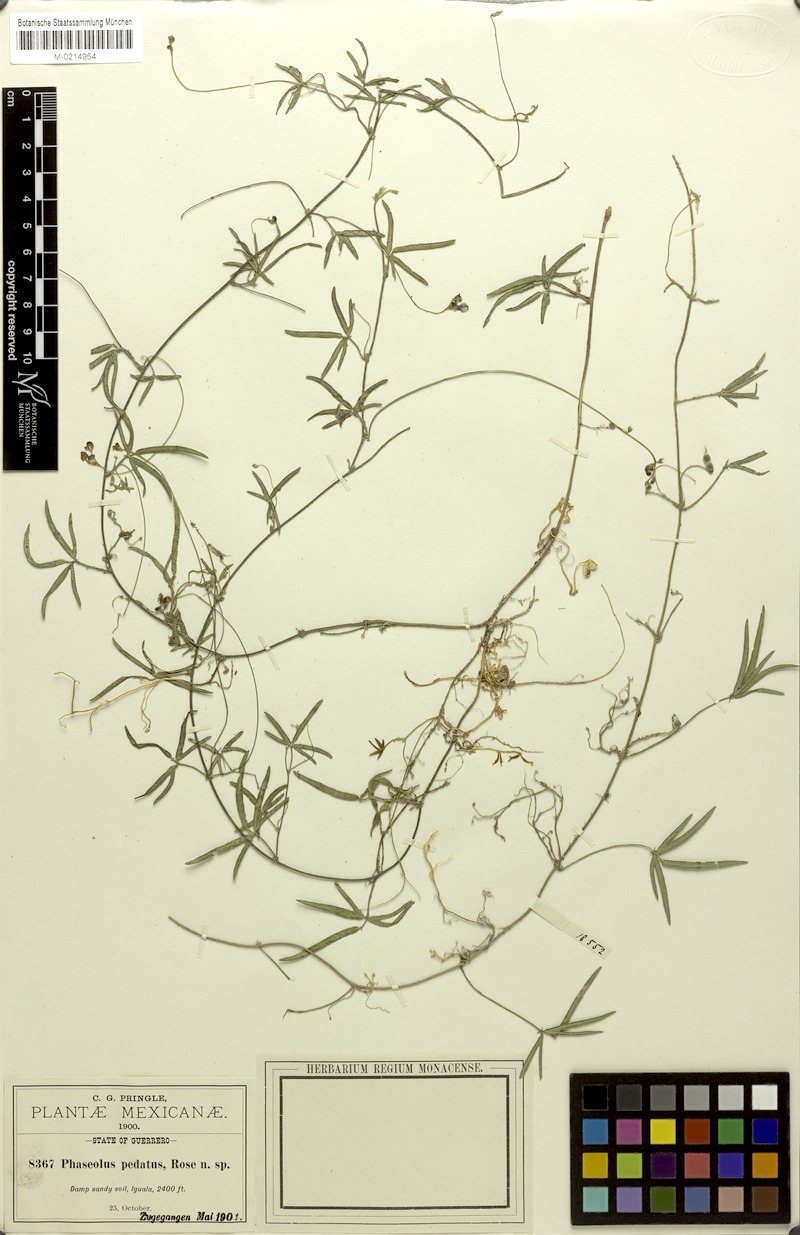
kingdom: Plantae
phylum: Tracheophyta
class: Magnoliopsida
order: Fabales
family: Fabaceae
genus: Macroptilium
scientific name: Macroptilium pedatum
